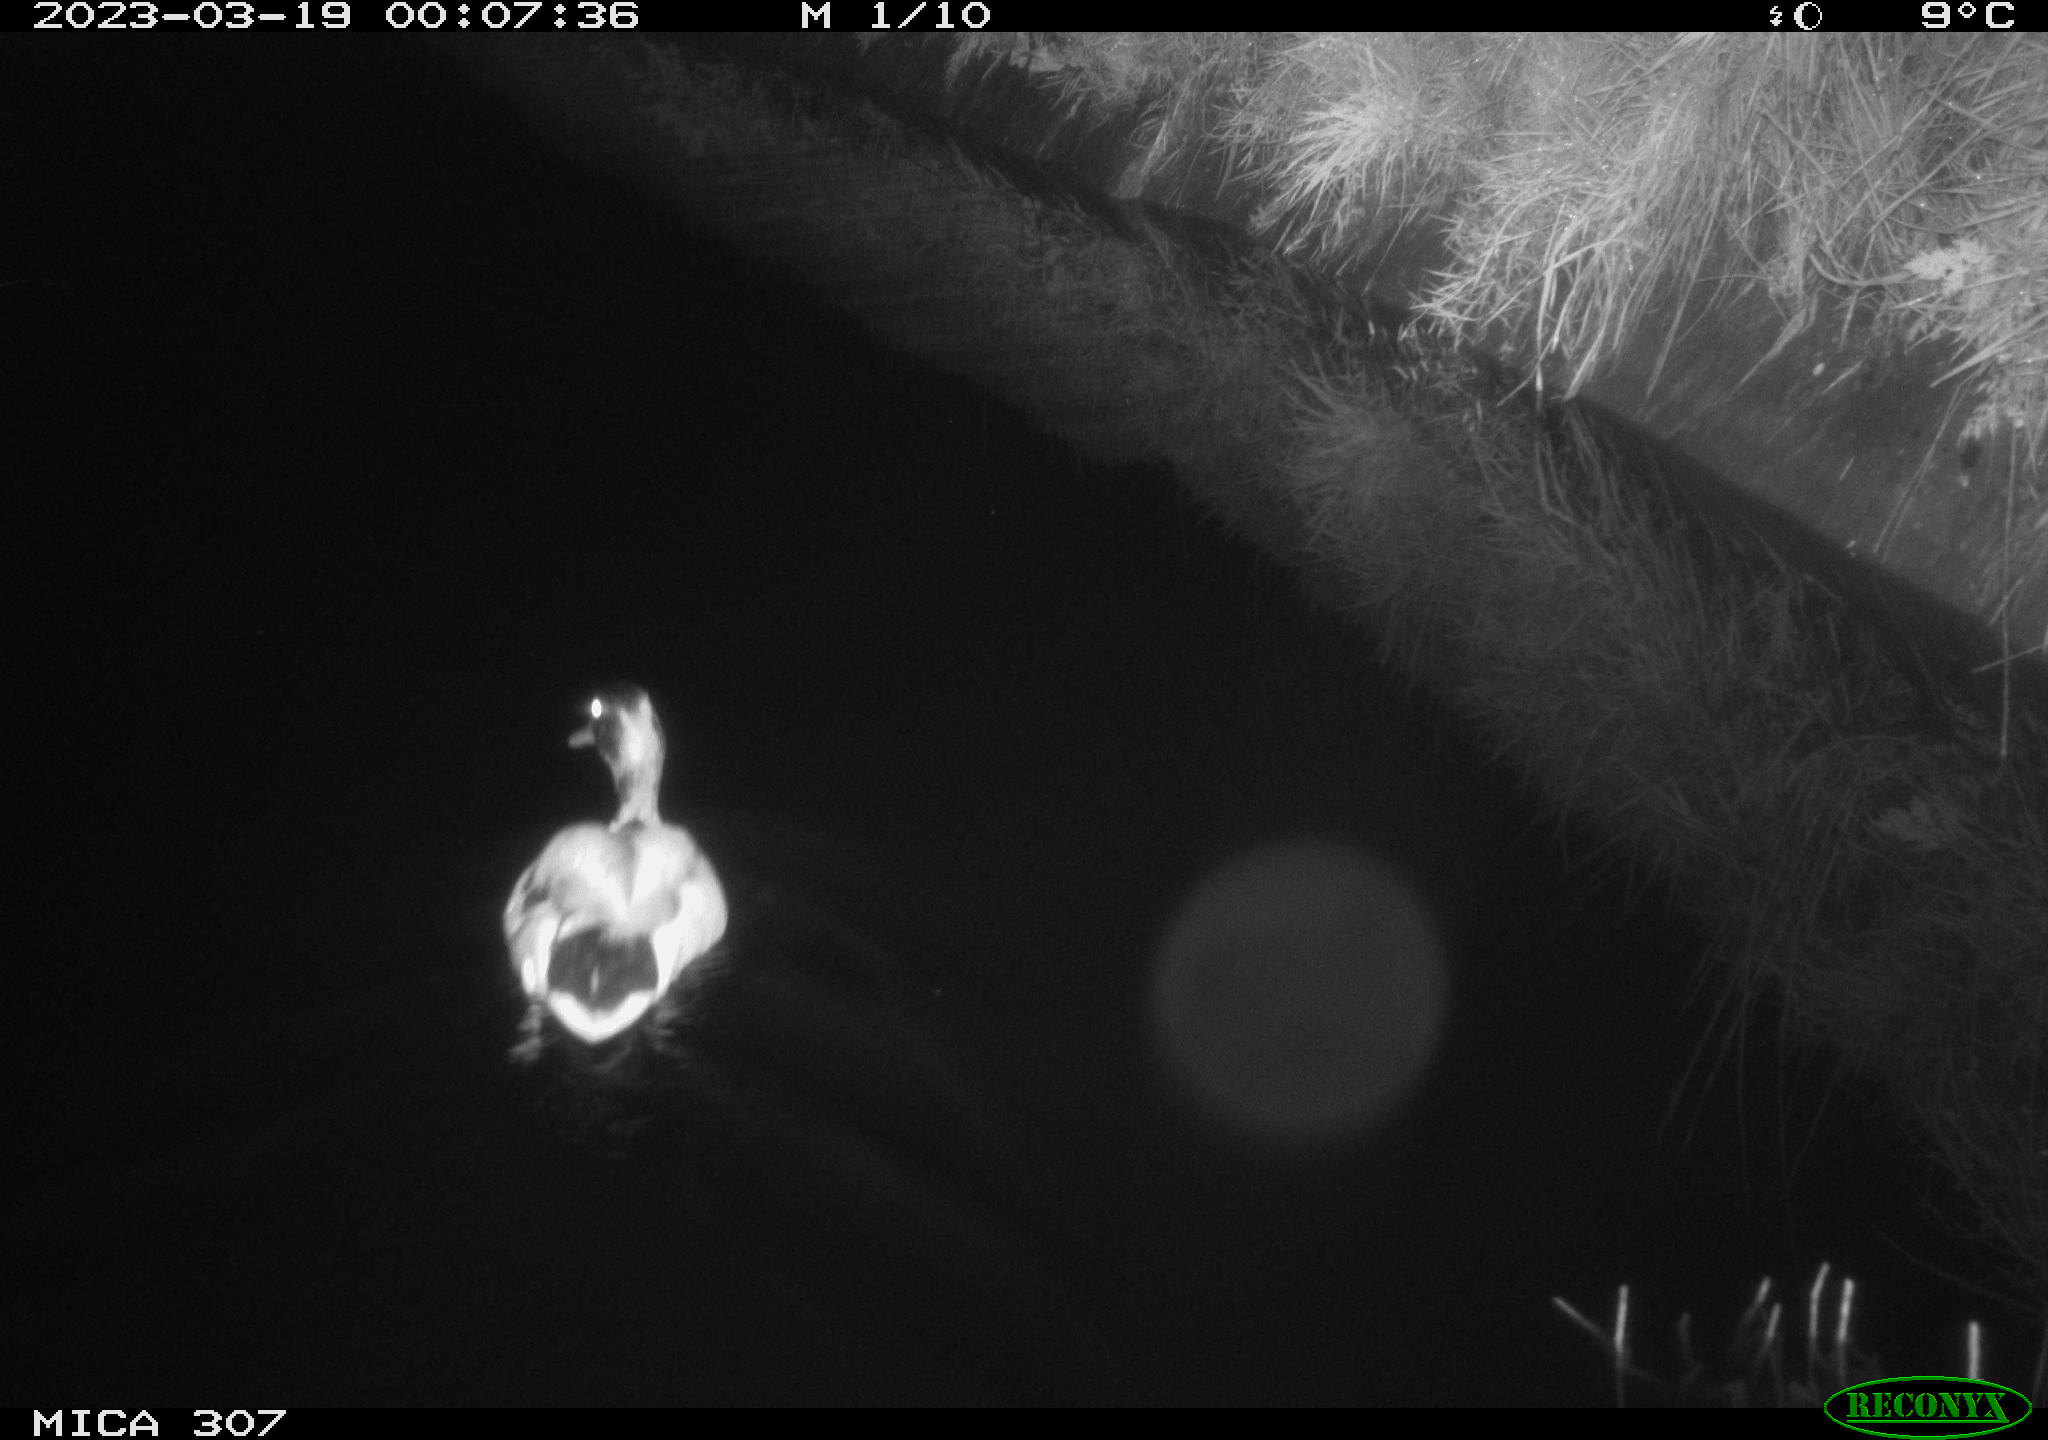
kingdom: Animalia
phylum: Chordata
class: Aves
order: Anseriformes
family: Anatidae
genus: Anas
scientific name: Anas
